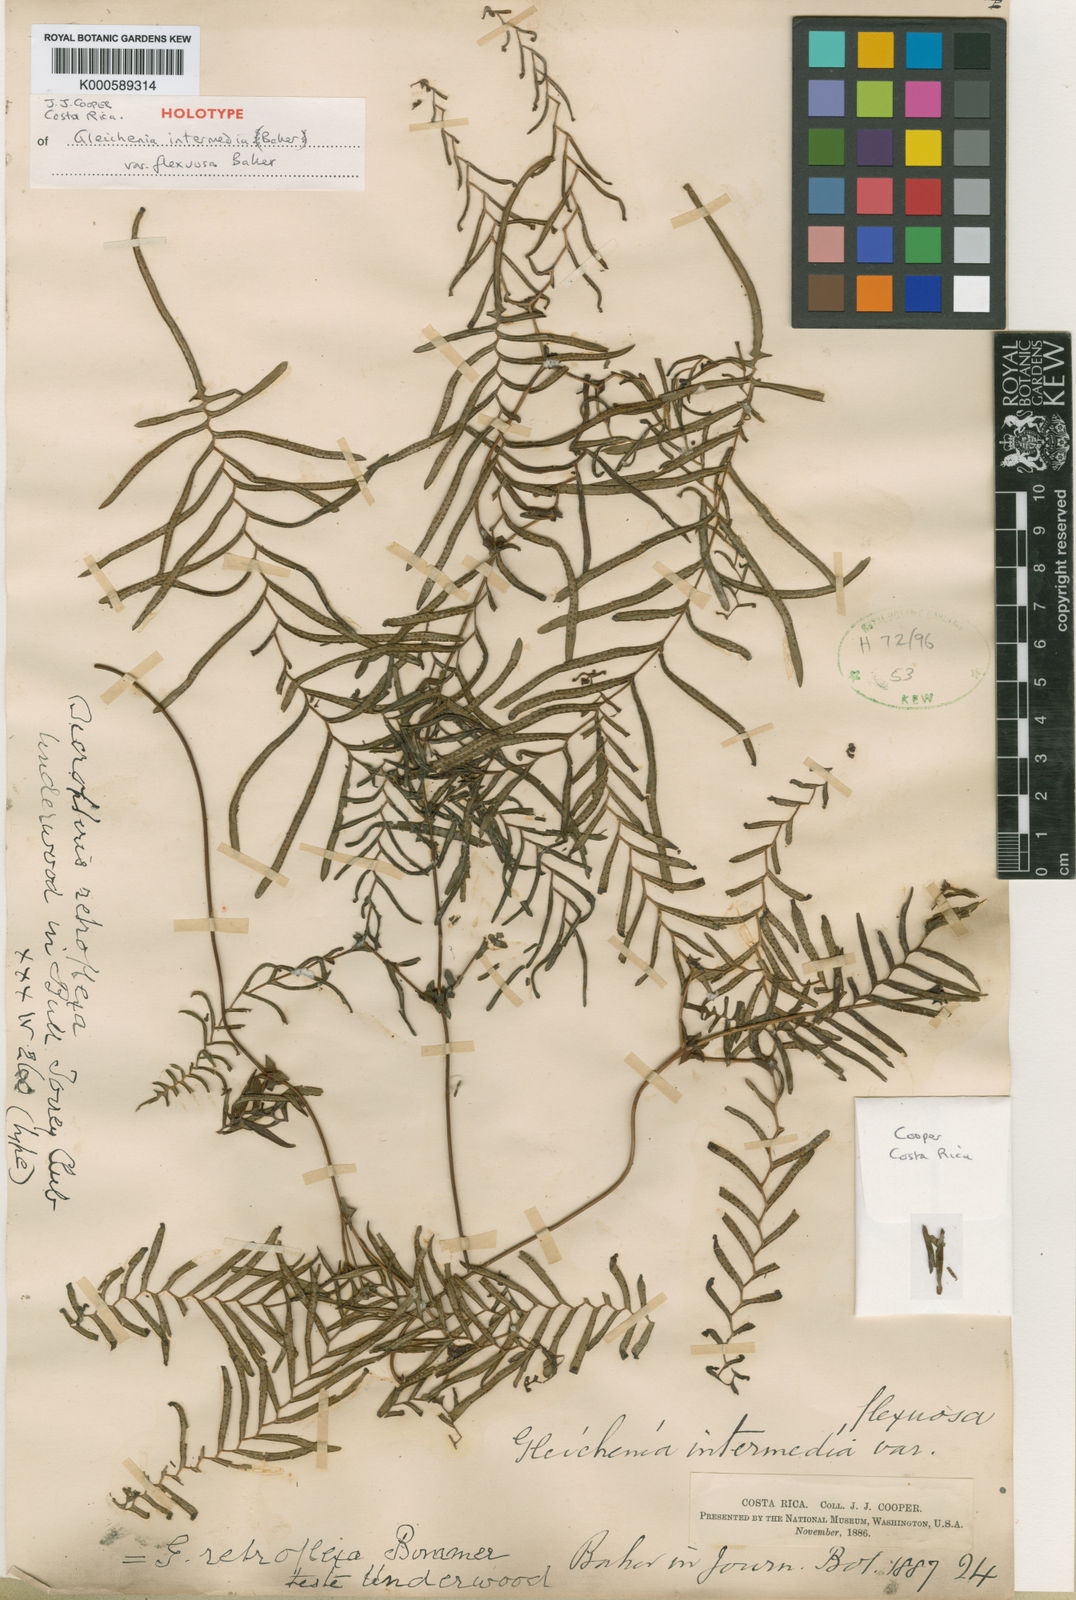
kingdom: Plantae
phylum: Tracheophyta
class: Polypodiopsida
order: Gleicheniales
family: Gleicheniaceae
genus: Sticherus
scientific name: Sticherus intermedius
